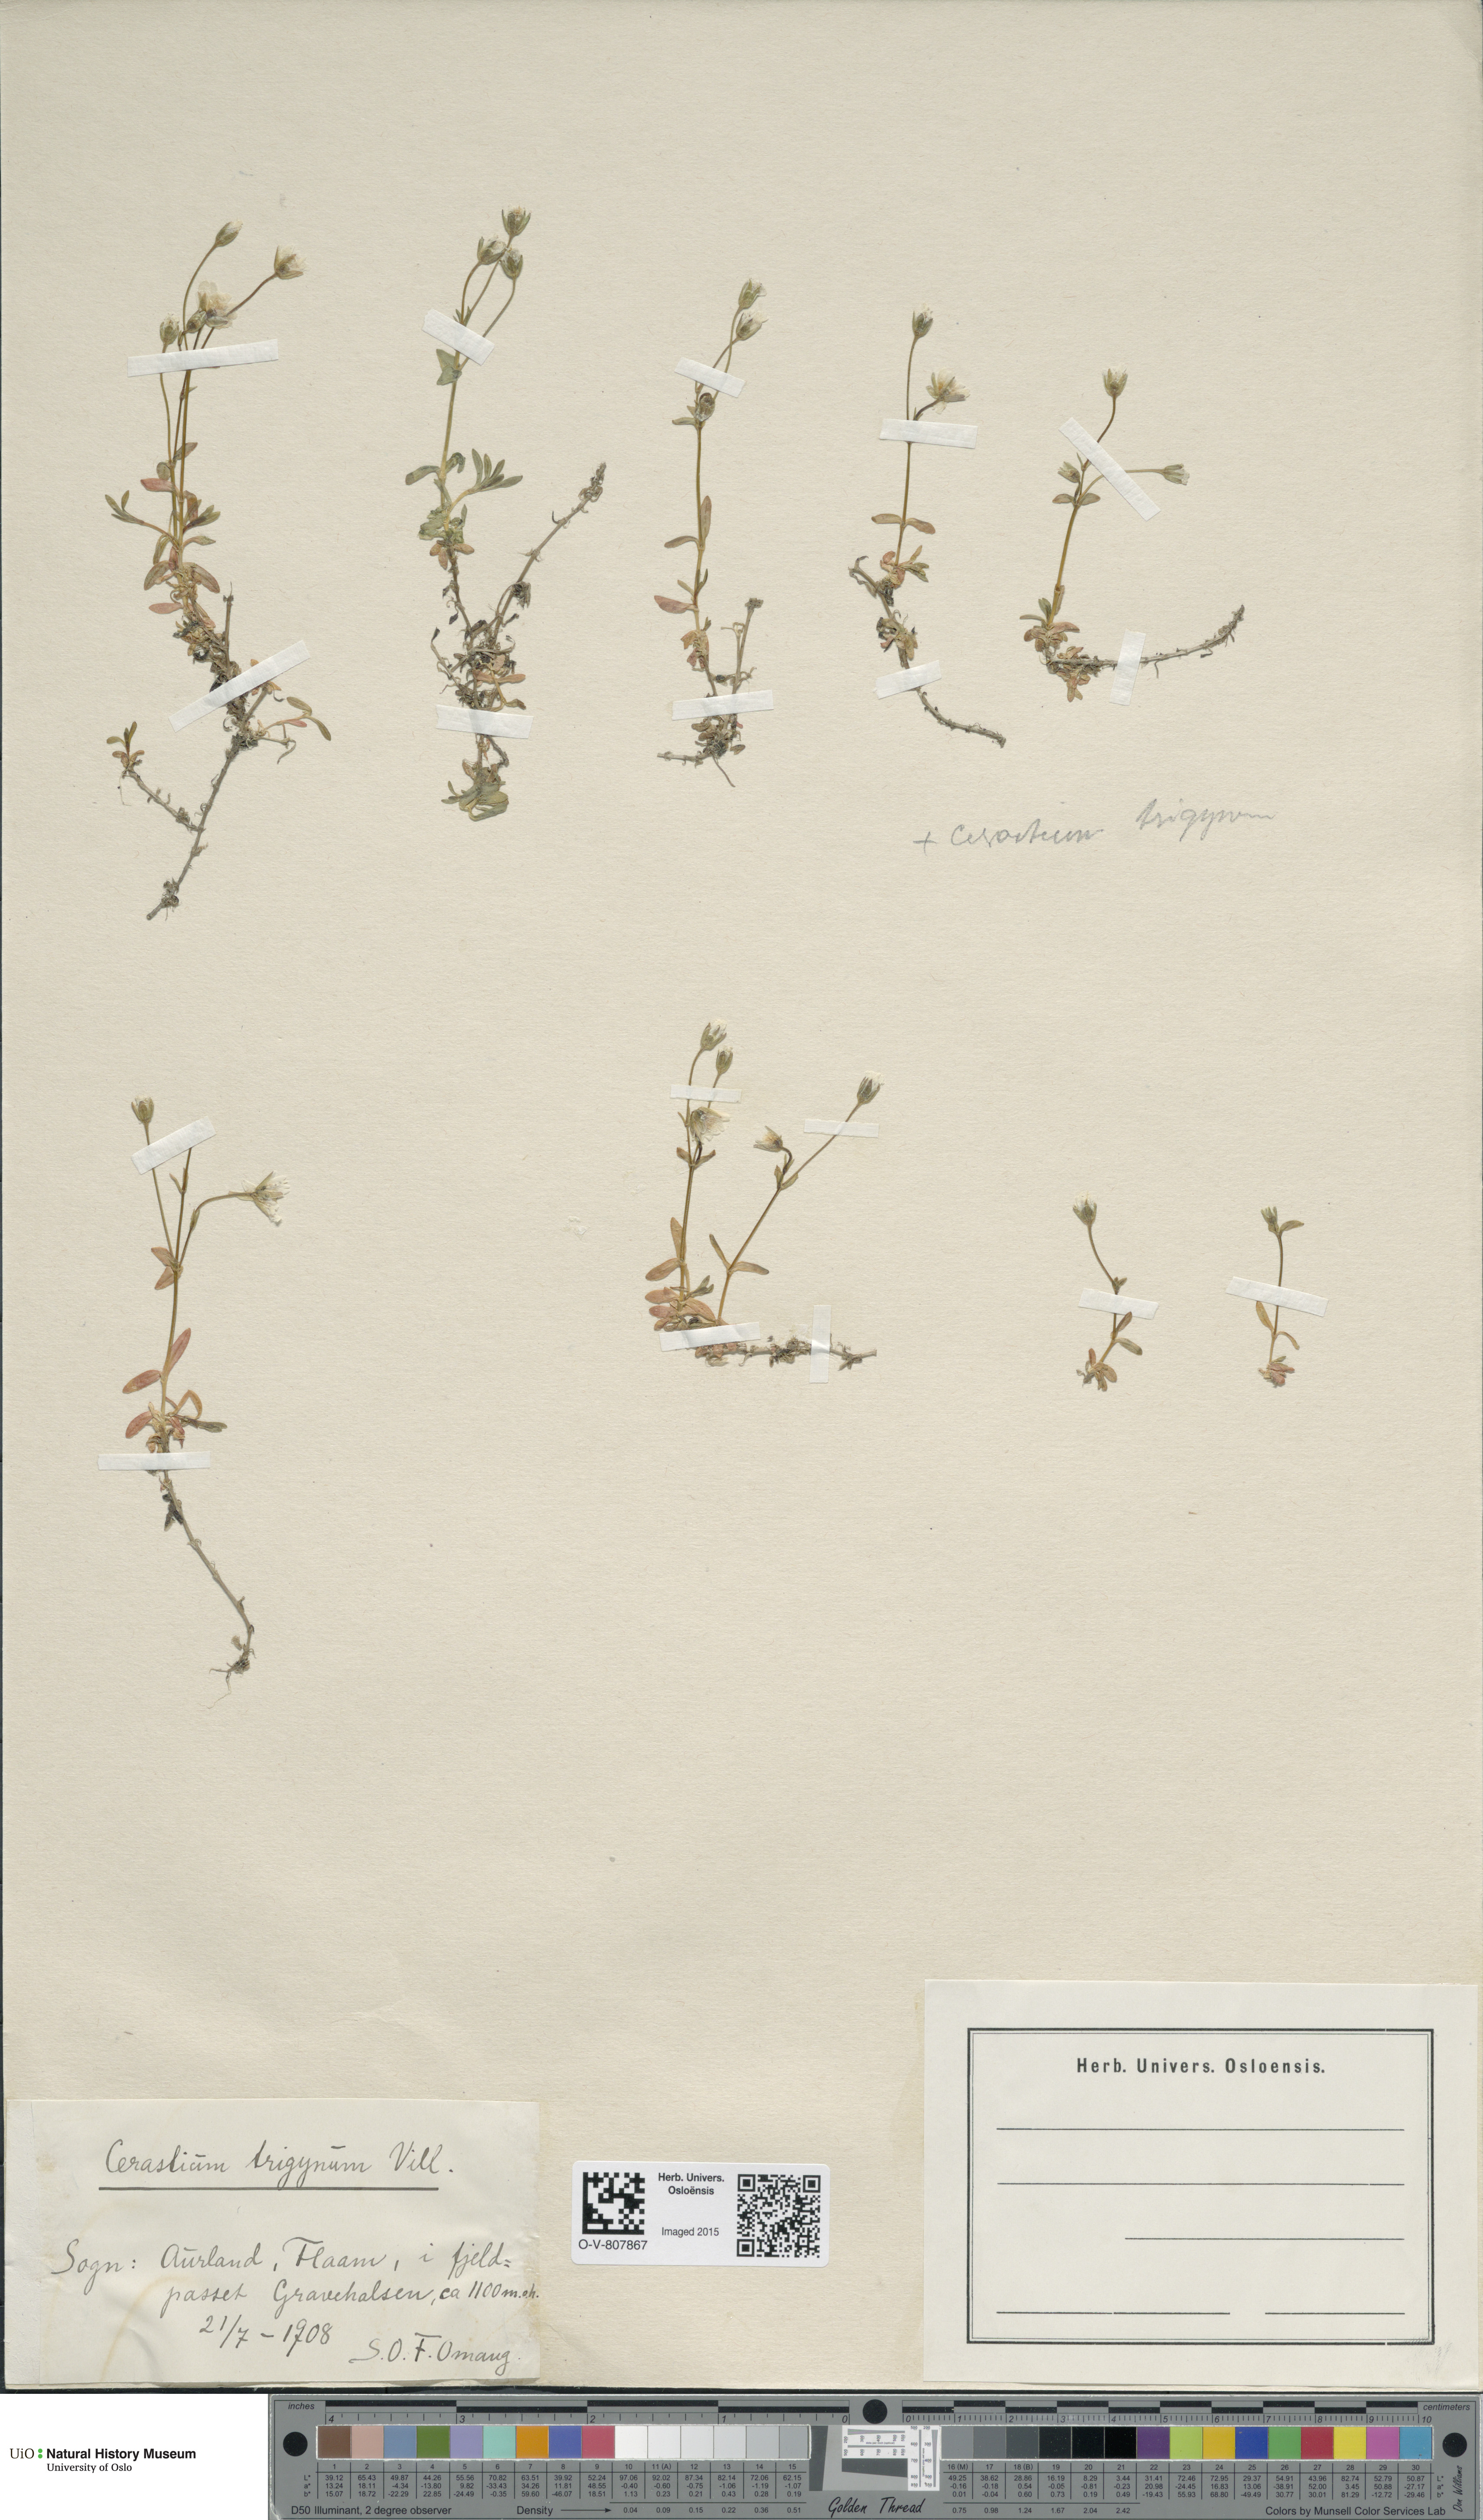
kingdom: Plantae
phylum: Tracheophyta
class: Magnoliopsida
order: Caryophyllales
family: Caryophyllaceae
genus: Dichodon
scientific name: Dichodon cerastoides
